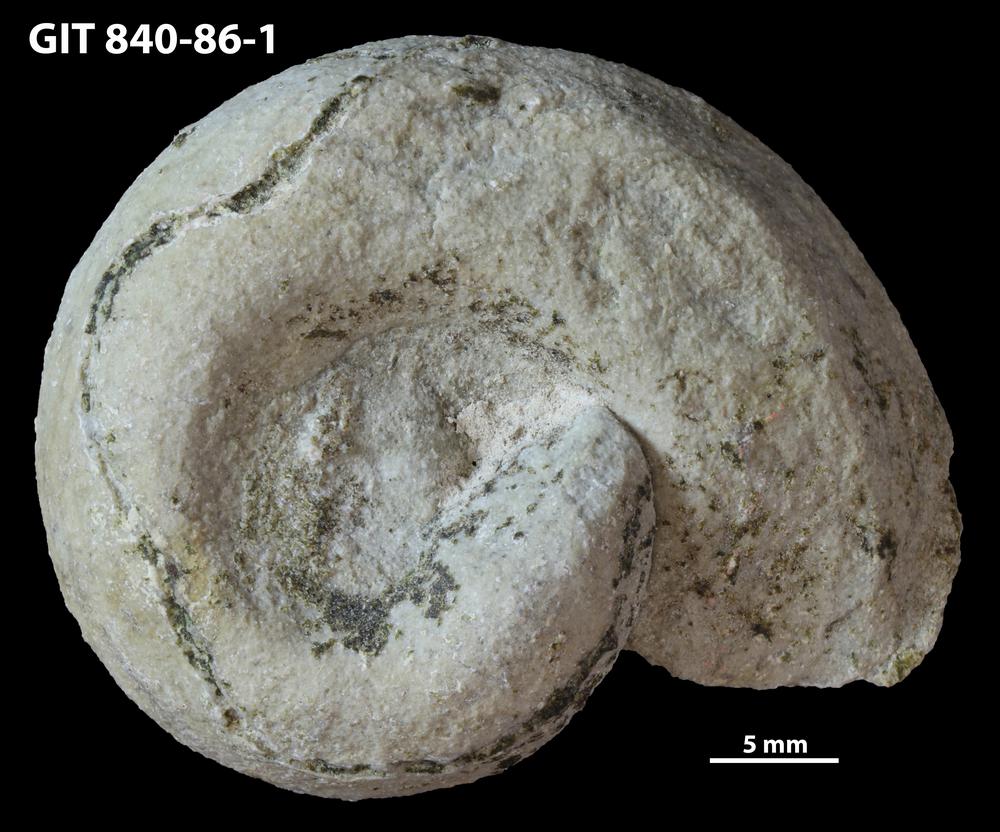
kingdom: Animalia
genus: Cochlichnus
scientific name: Cochlichnus
